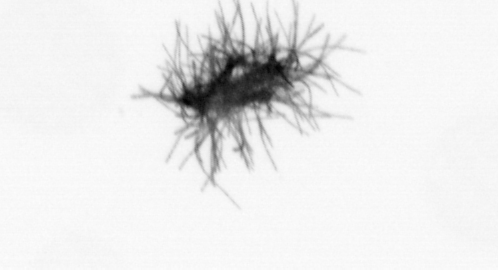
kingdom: Bacteria
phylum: Cyanobacteria
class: Cyanobacteriia
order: Cyanobacteriales
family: Microcoleaceae
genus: Trichodesmium
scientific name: Trichodesmium
